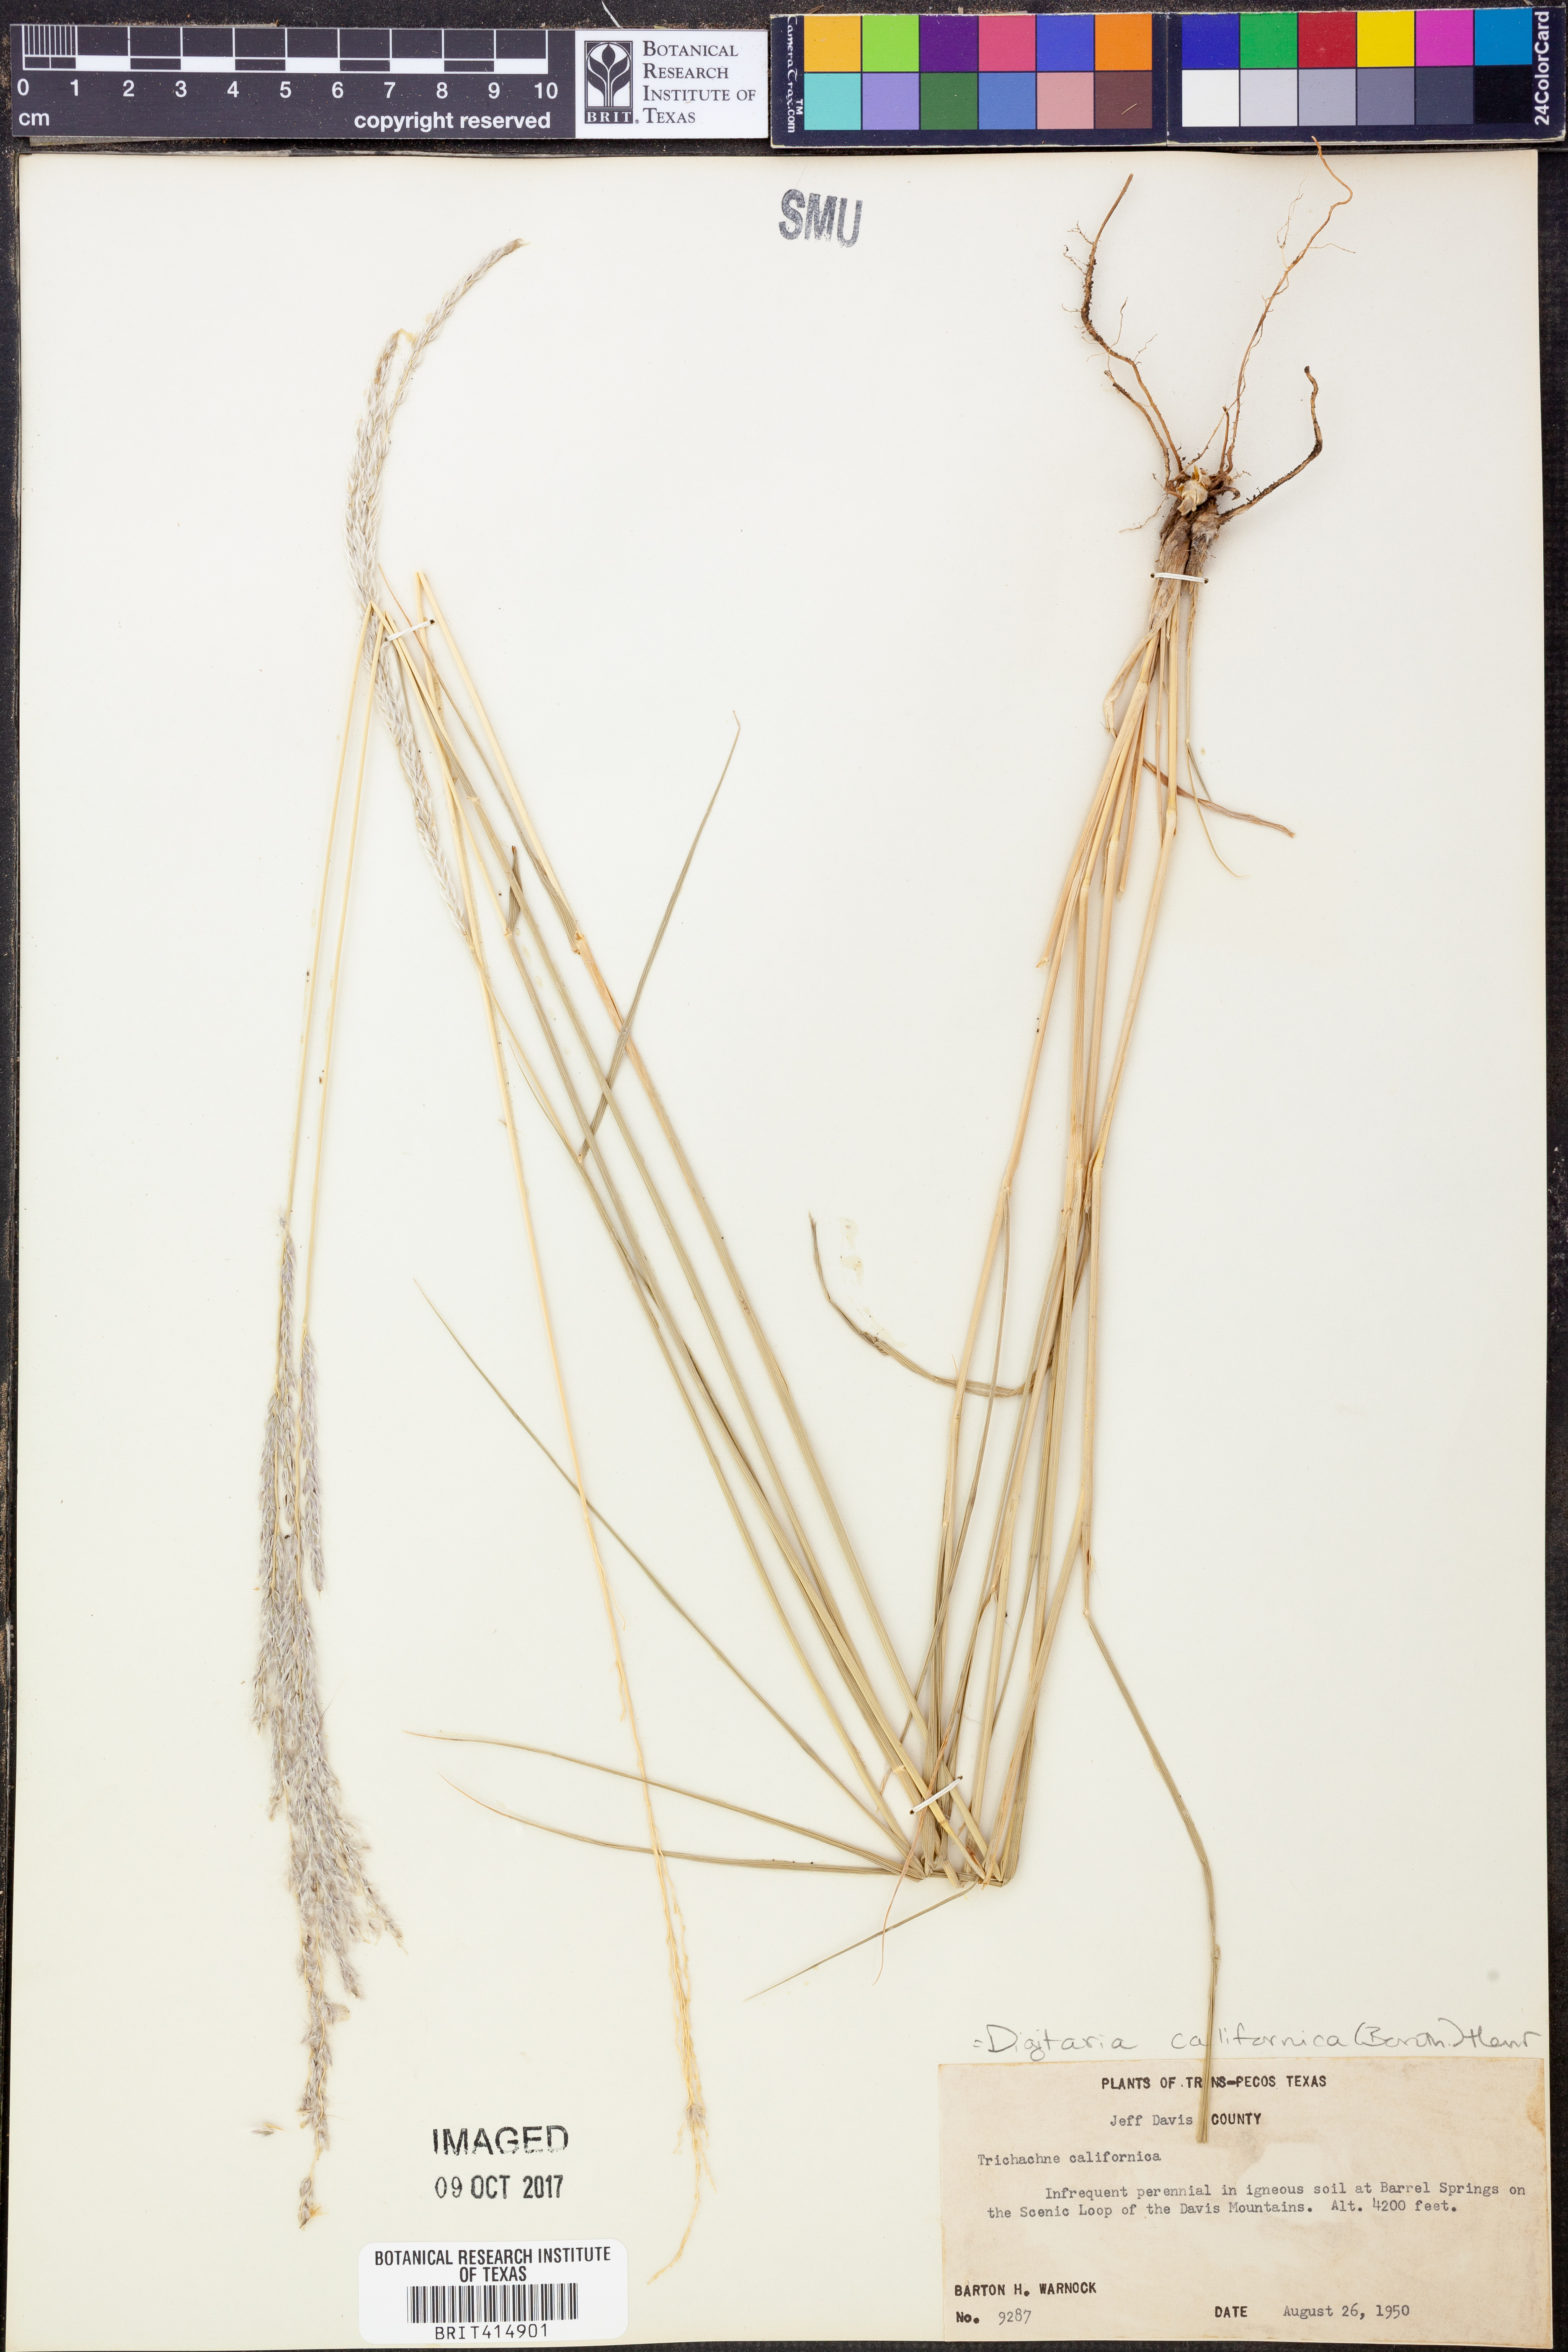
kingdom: Plantae
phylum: Tracheophyta
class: Liliopsida
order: Poales
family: Poaceae
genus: Digitaria
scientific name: Digitaria californica
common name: Arizona cottontop
